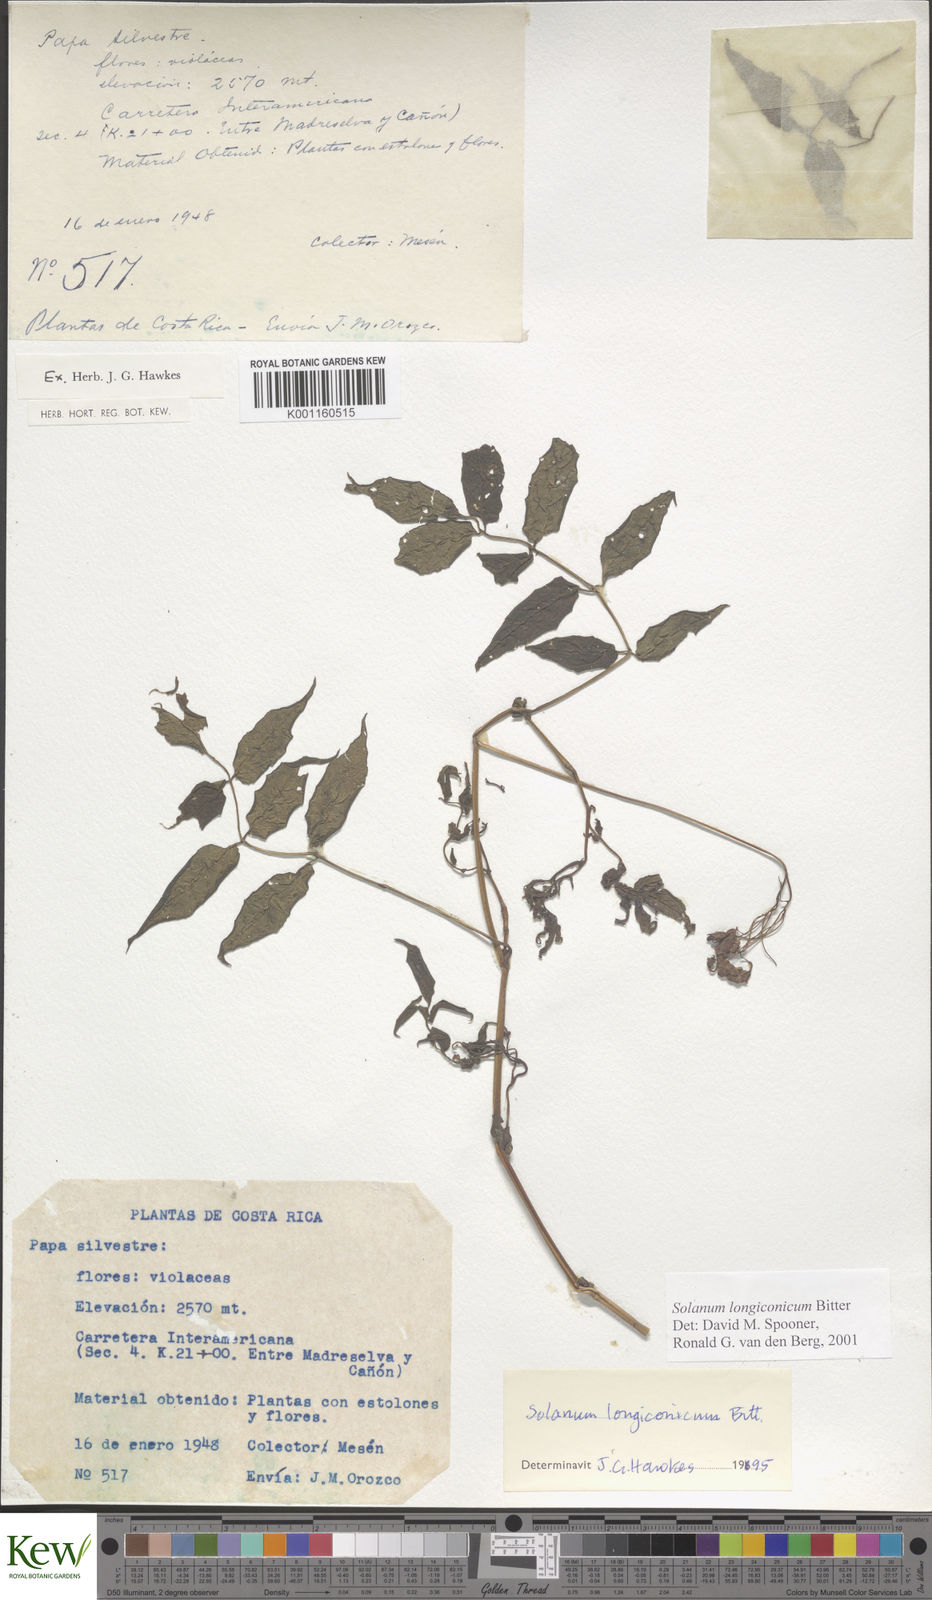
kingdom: Plantae
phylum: Tracheophyta
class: Magnoliopsida
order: Solanales
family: Solanaceae
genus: Solanum
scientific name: Solanum longiconicum
